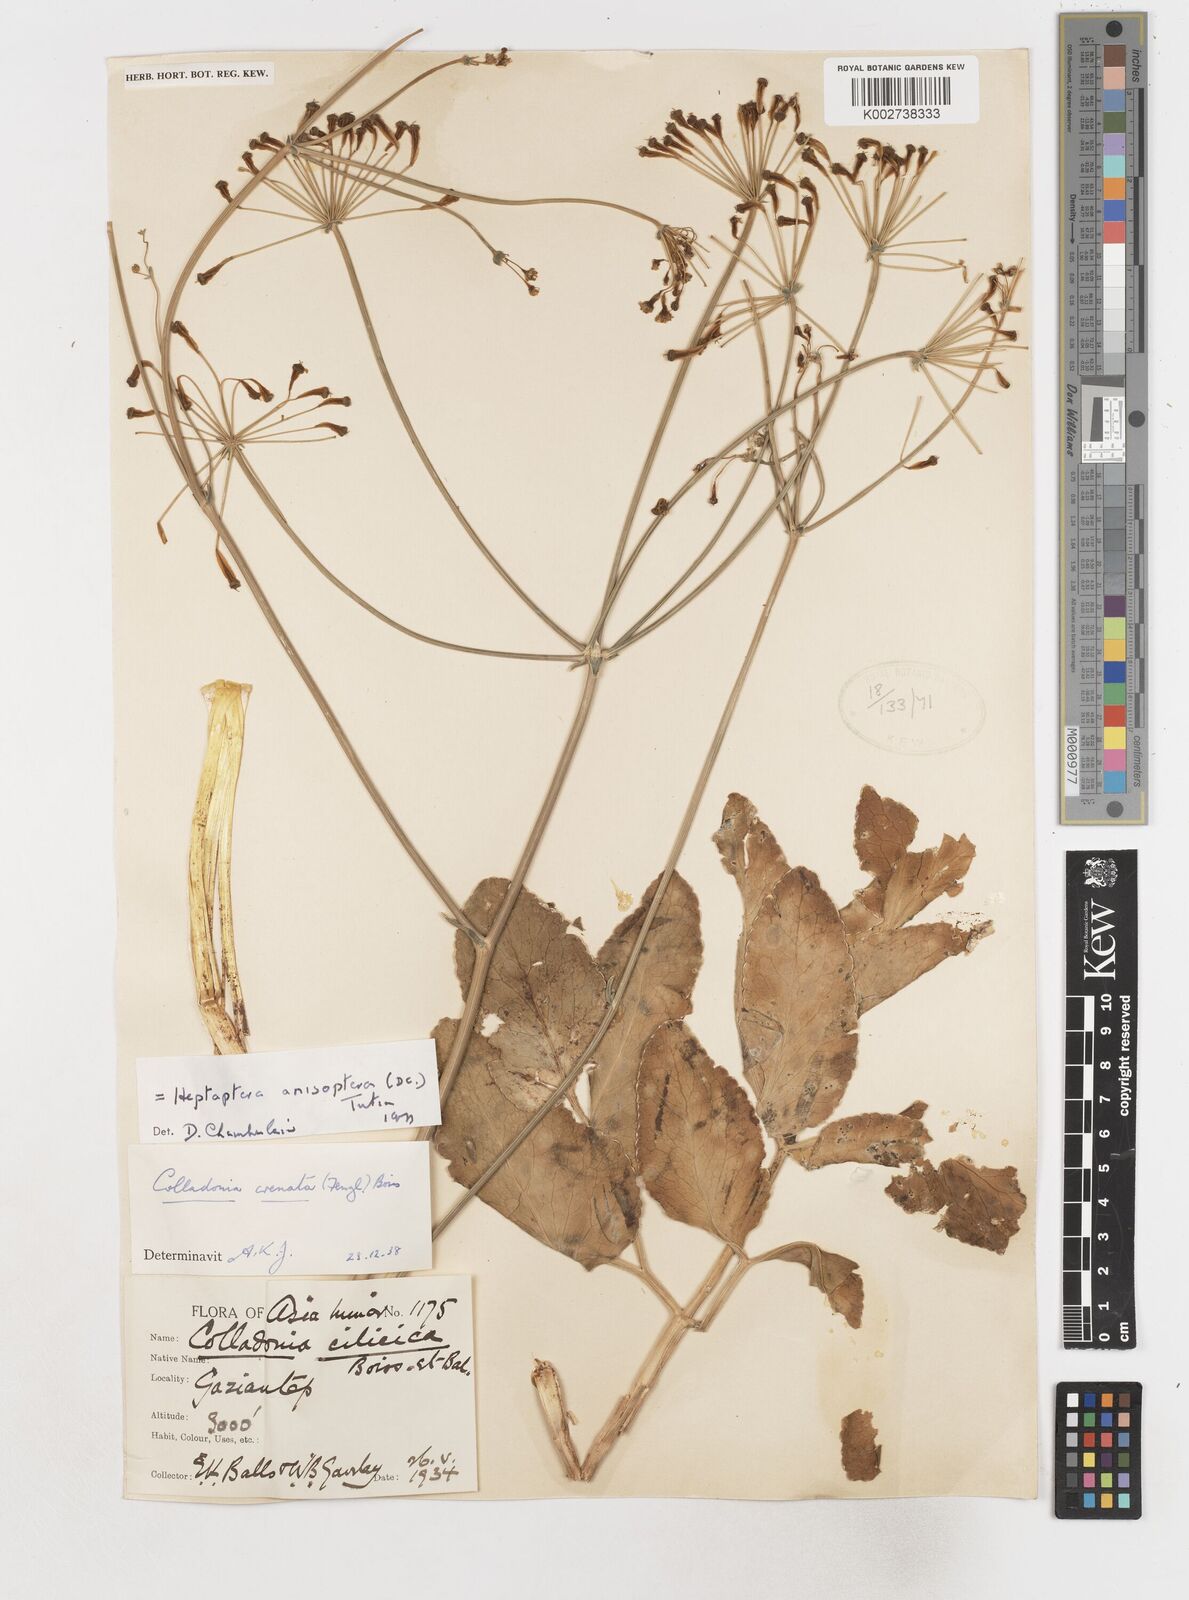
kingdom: Plantae
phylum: Tracheophyta
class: Magnoliopsida
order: Apiales
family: Apiaceae
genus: Heptaptera
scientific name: Heptaptera
